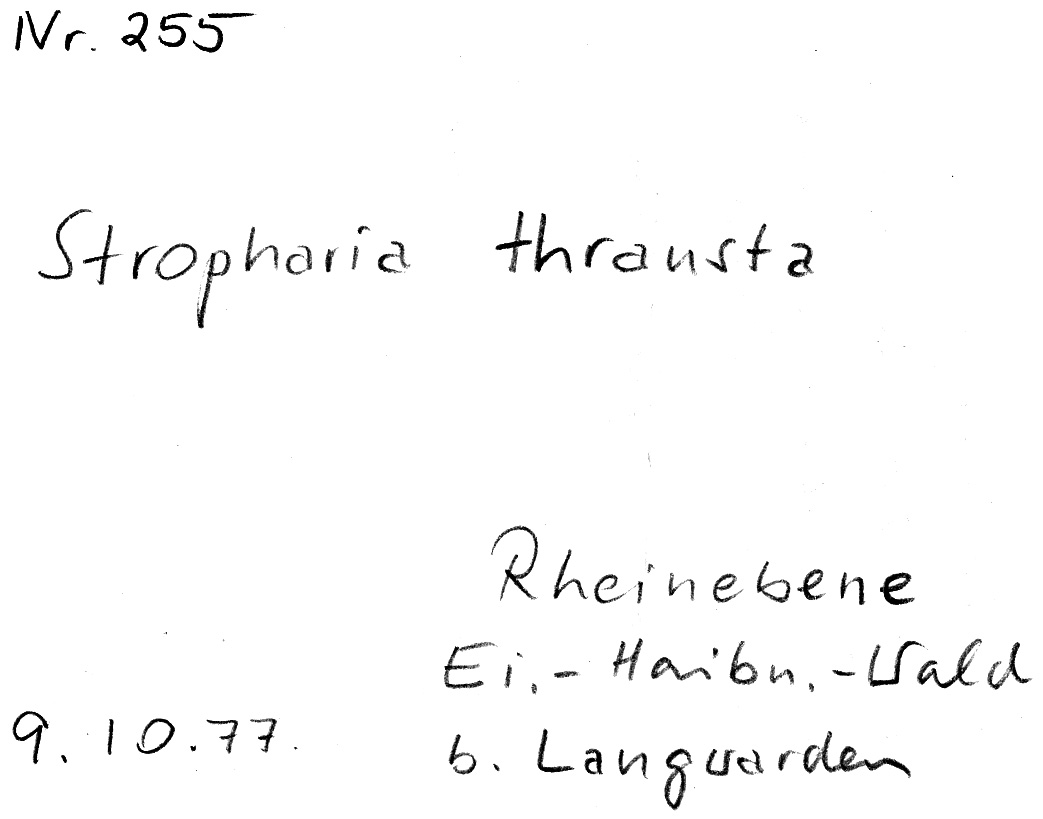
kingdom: Fungi
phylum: Basidiomycota
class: Agaricomycetes
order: Agaricales
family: Strophariaceae
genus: Leratiomyces
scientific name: Leratiomyces squamosus
